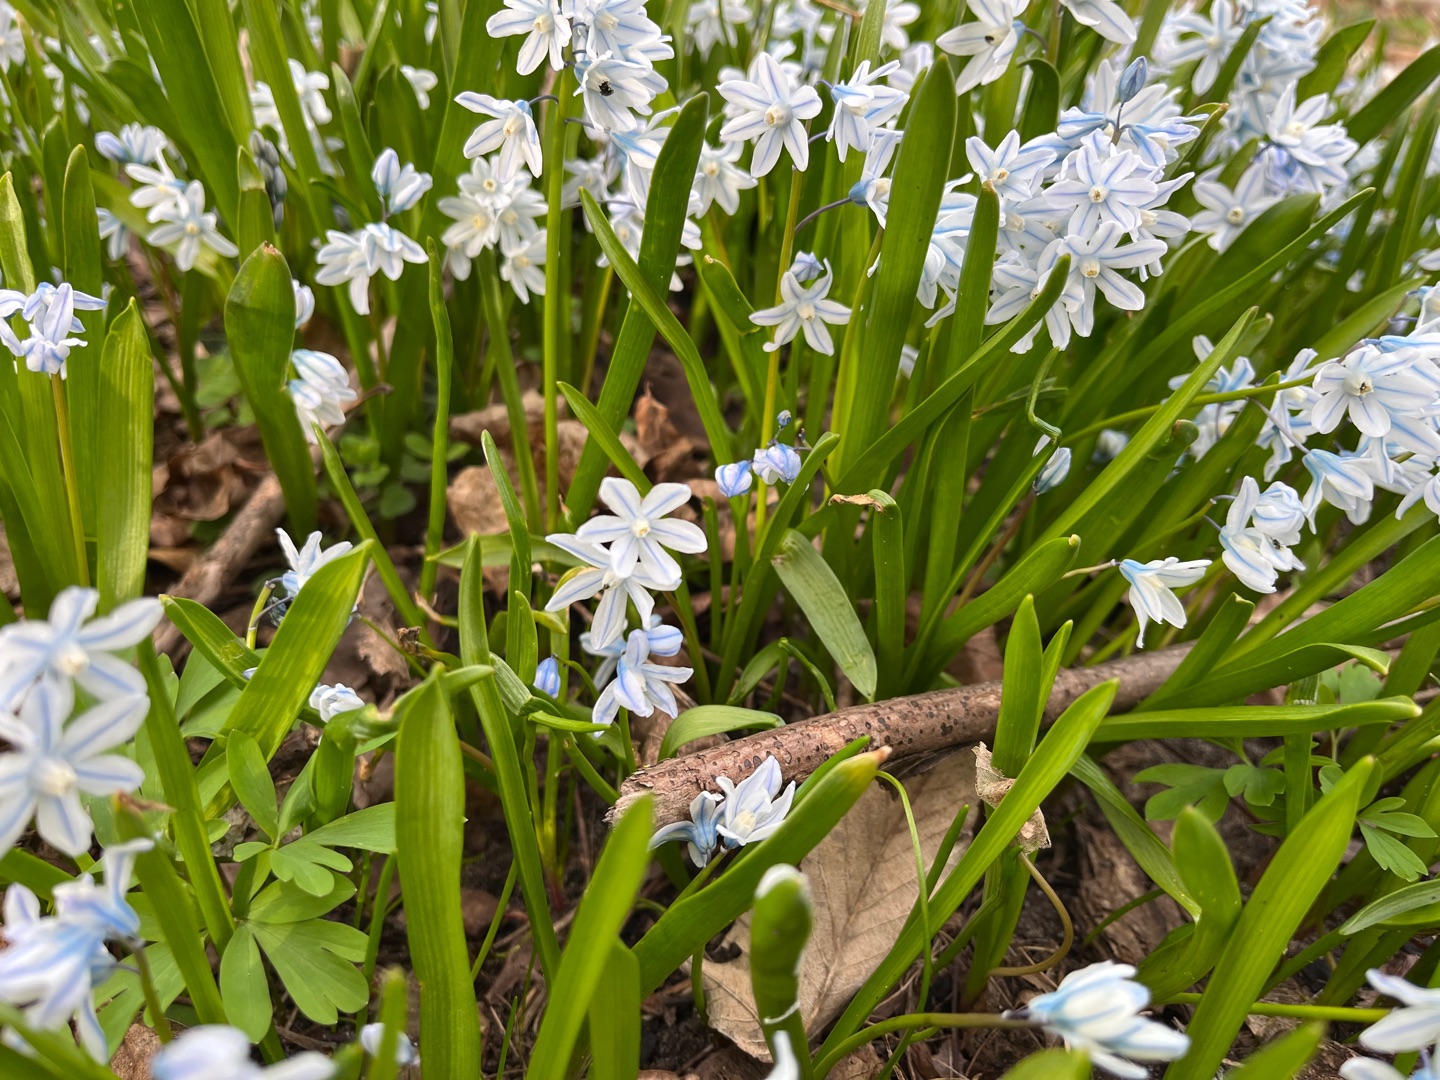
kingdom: Plantae
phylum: Tracheophyta
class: Liliopsida
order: Asparagales
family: Asparagaceae
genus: Puschkinia
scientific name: Puschkinia scilloides
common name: Porcelænshyacint
